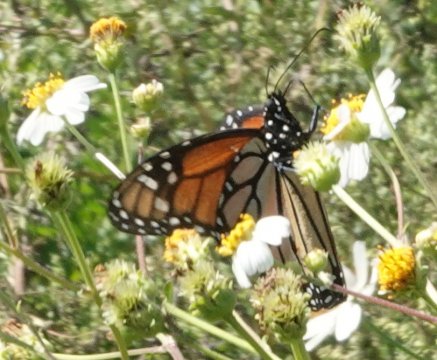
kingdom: Animalia
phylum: Arthropoda
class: Insecta
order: Lepidoptera
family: Nymphalidae
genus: Danaus
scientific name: Danaus plexippus
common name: Monarch
